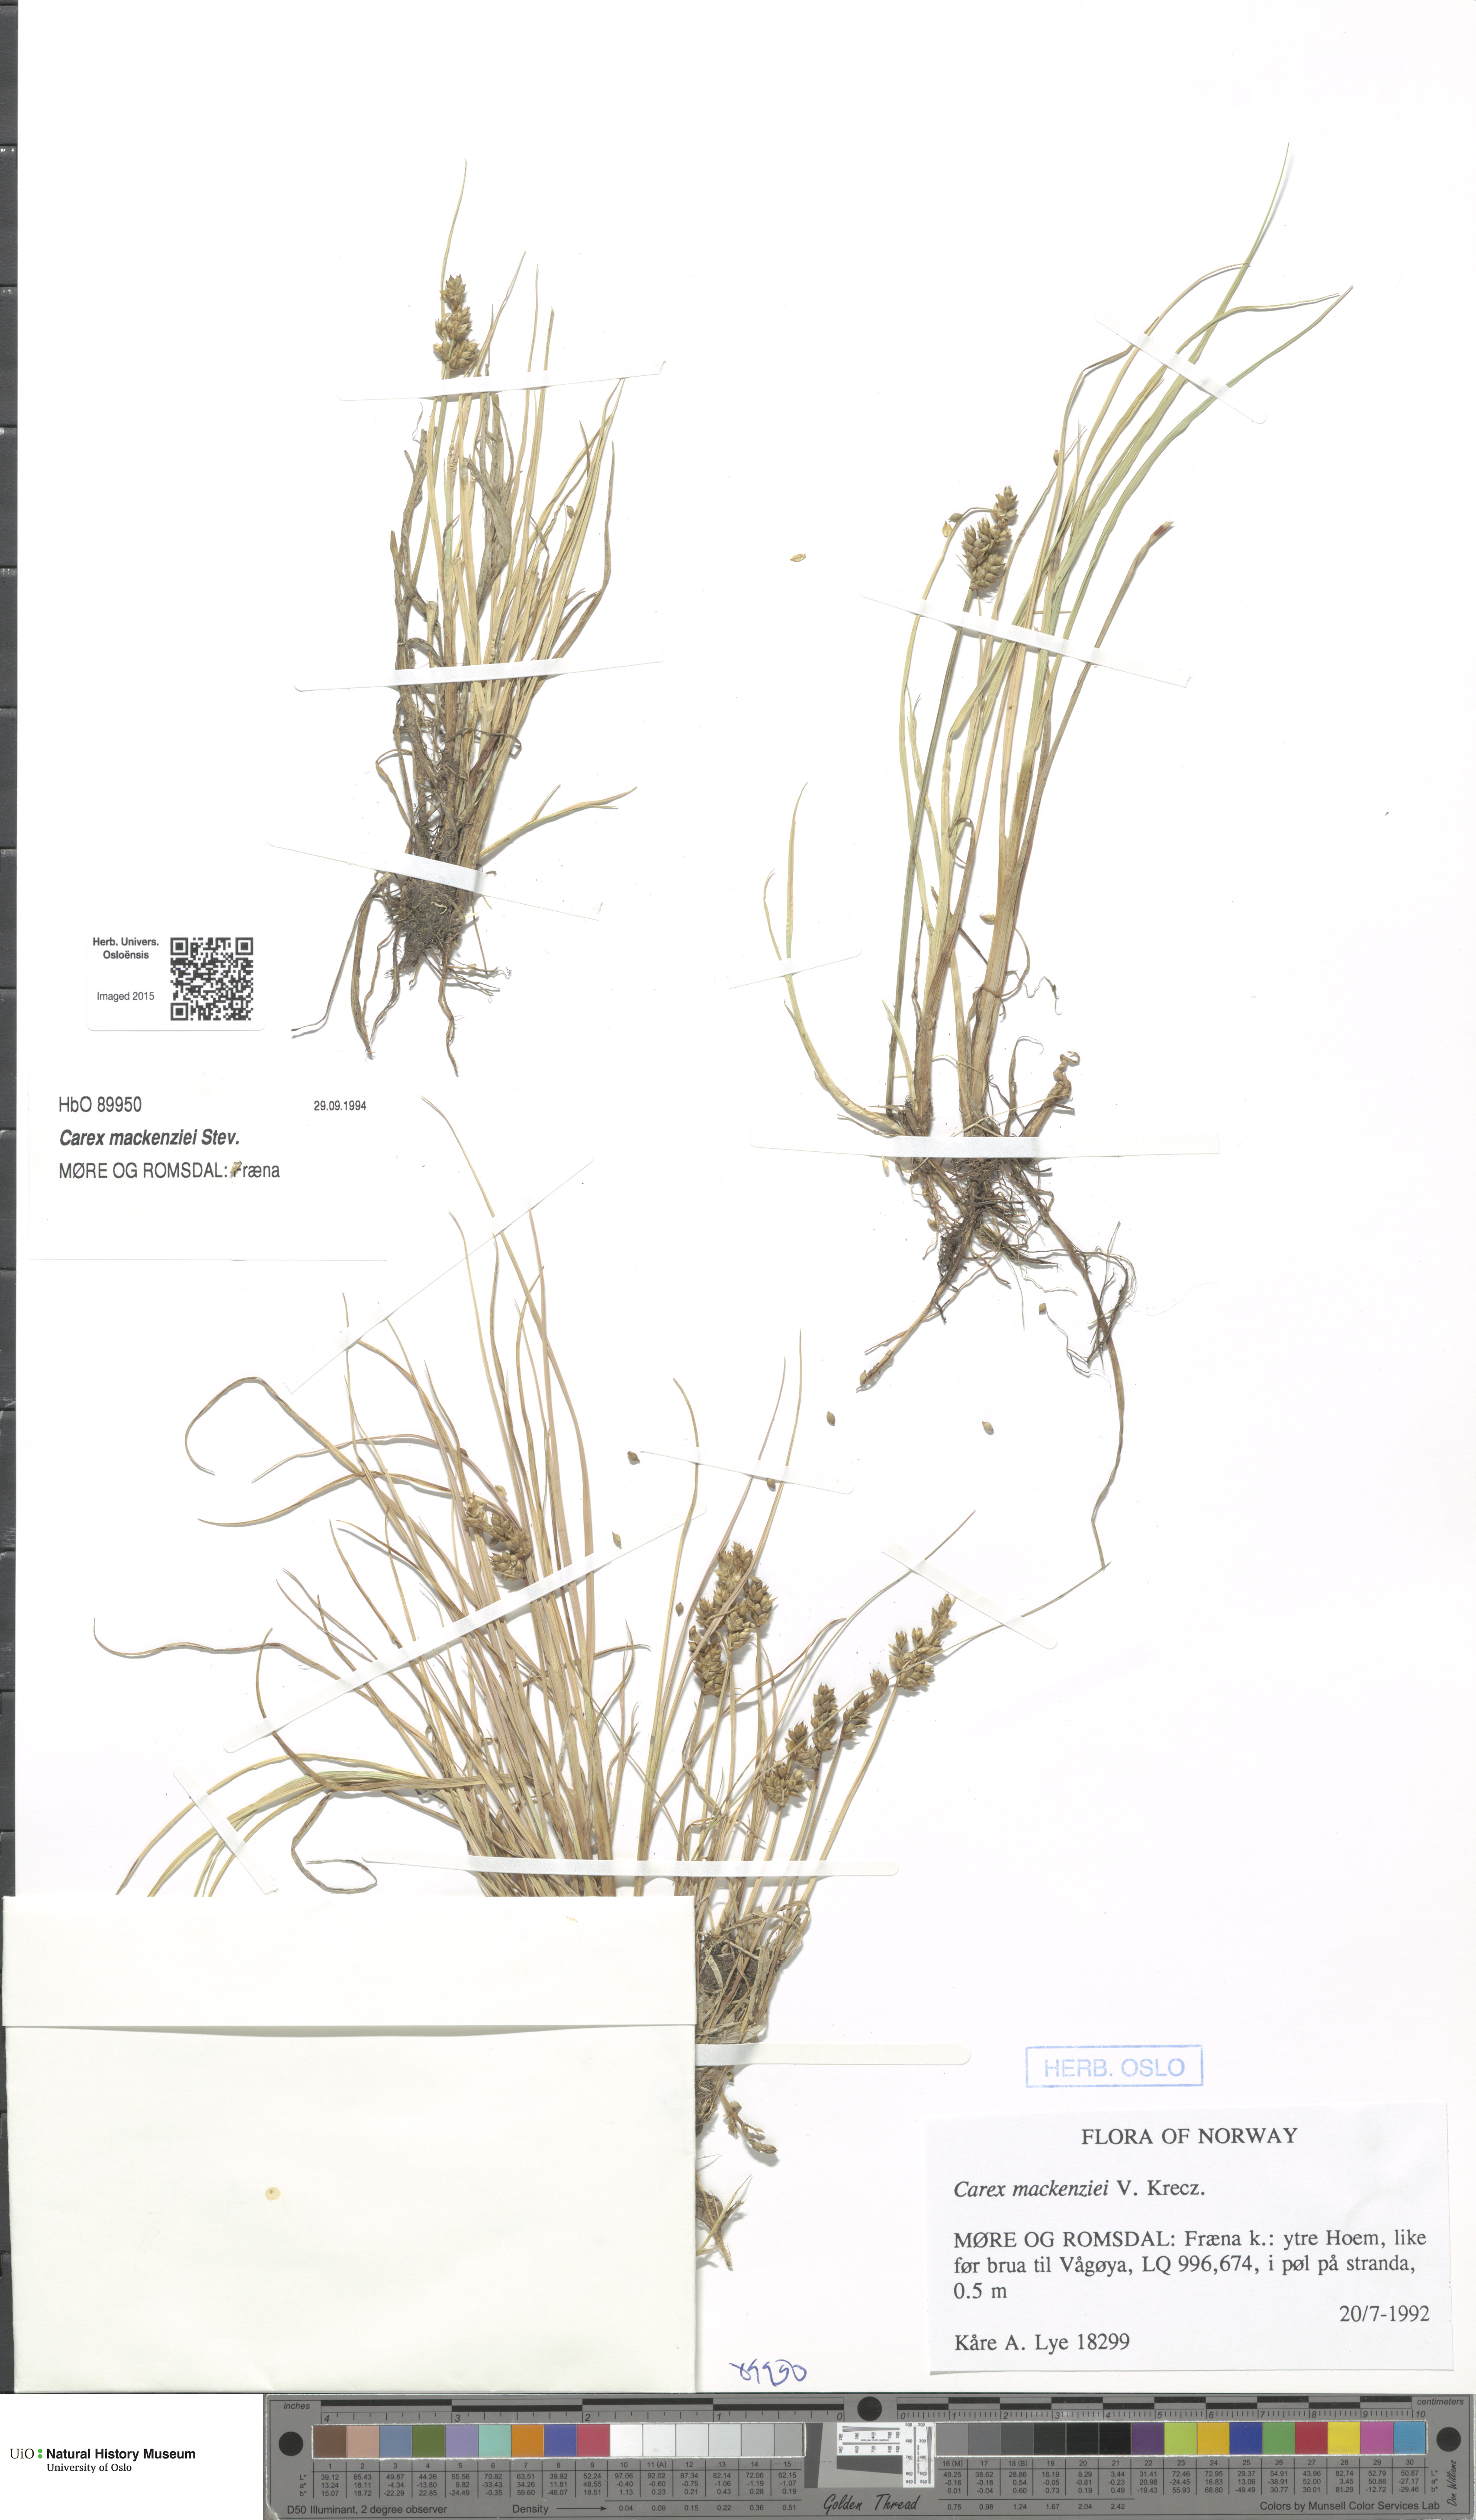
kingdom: Plantae
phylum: Tracheophyta
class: Liliopsida
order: Poales
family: Cyperaceae
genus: Carex
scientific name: Carex mackenziei
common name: Mackenzie's sedge
